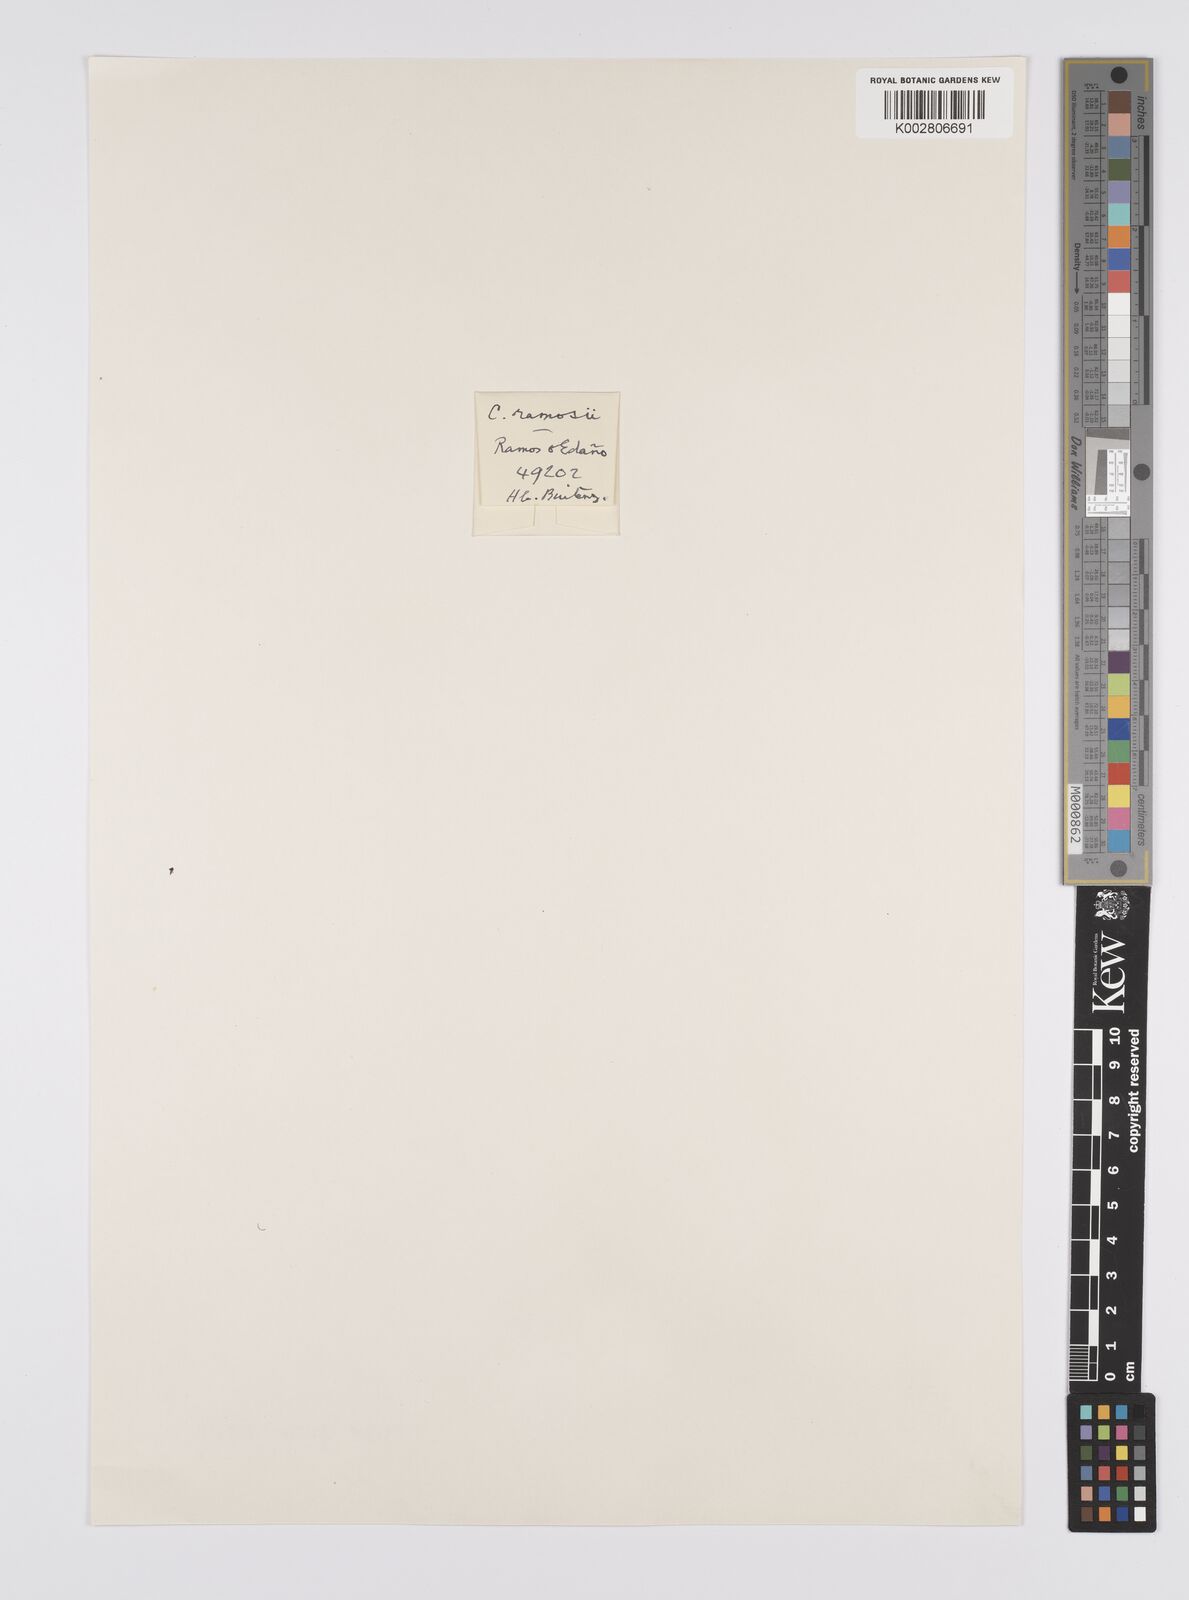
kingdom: Plantae
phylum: Tracheophyta
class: Liliopsida
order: Poales
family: Cyperaceae
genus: Carex
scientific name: Carex ramosii
